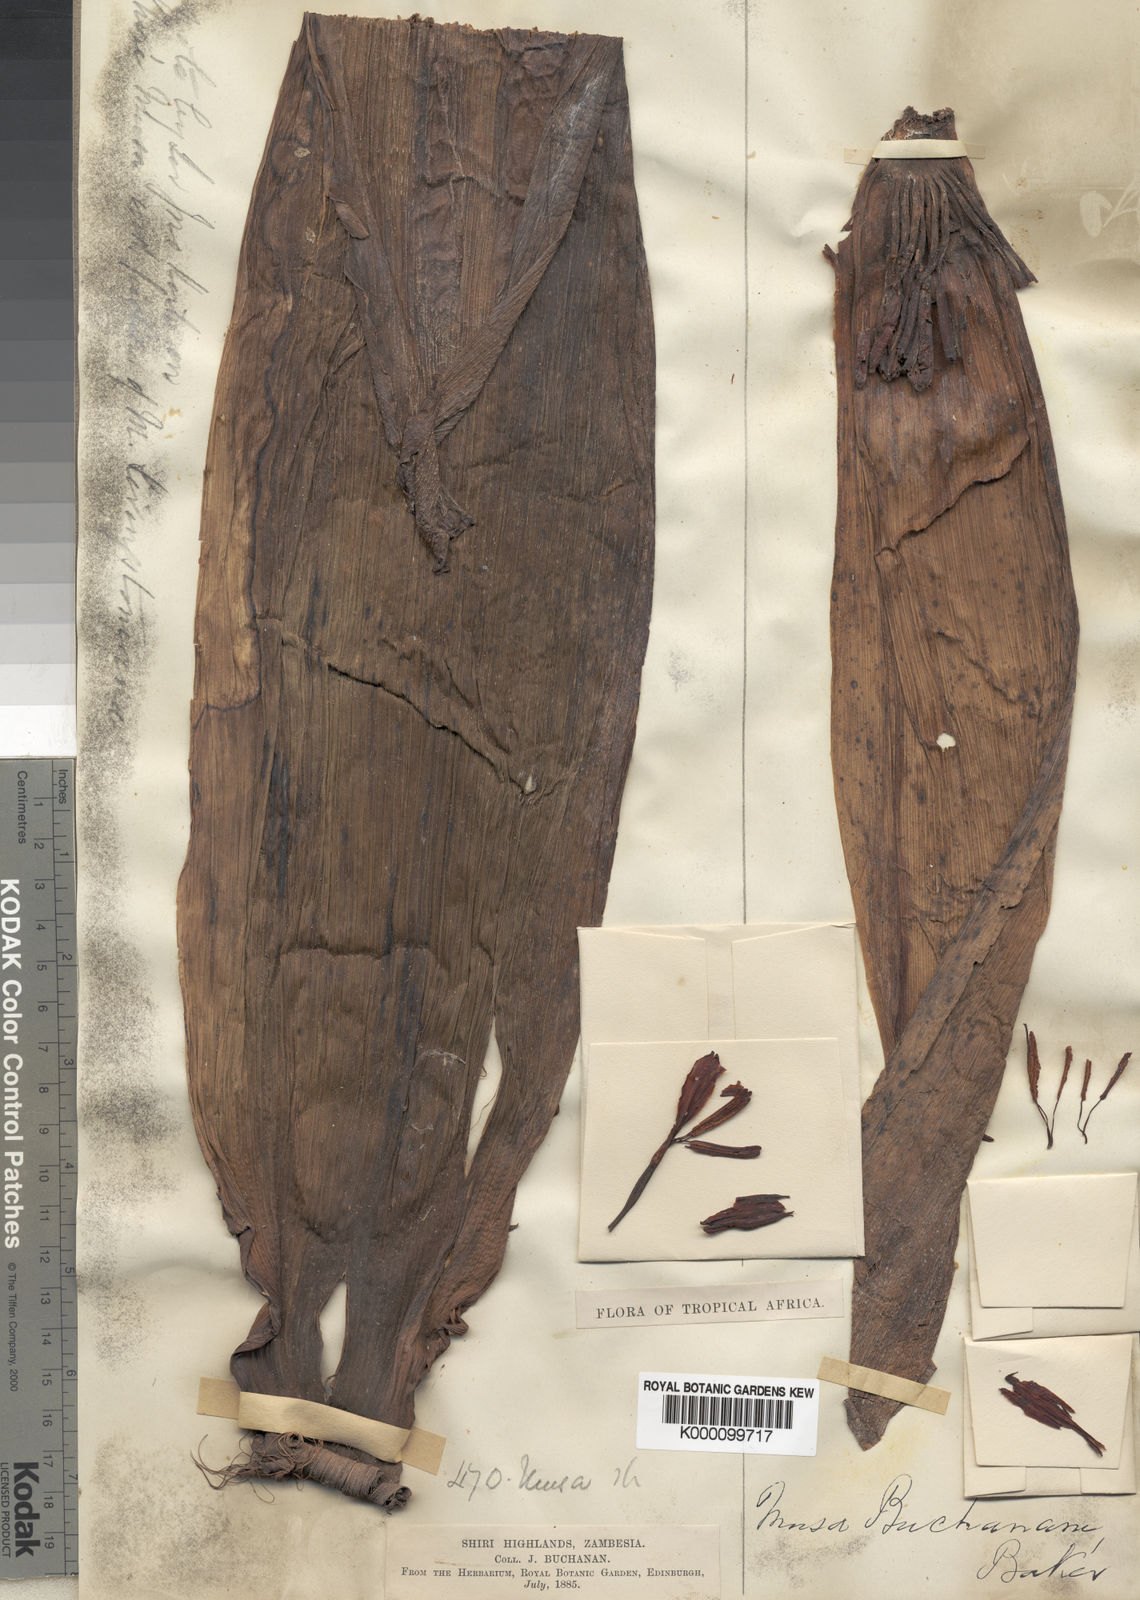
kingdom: Plantae
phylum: Tracheophyta
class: Liliopsida
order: Zingiberales
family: Musaceae
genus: Ensete
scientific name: Ensete ventricosum
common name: Abyssinian banana
